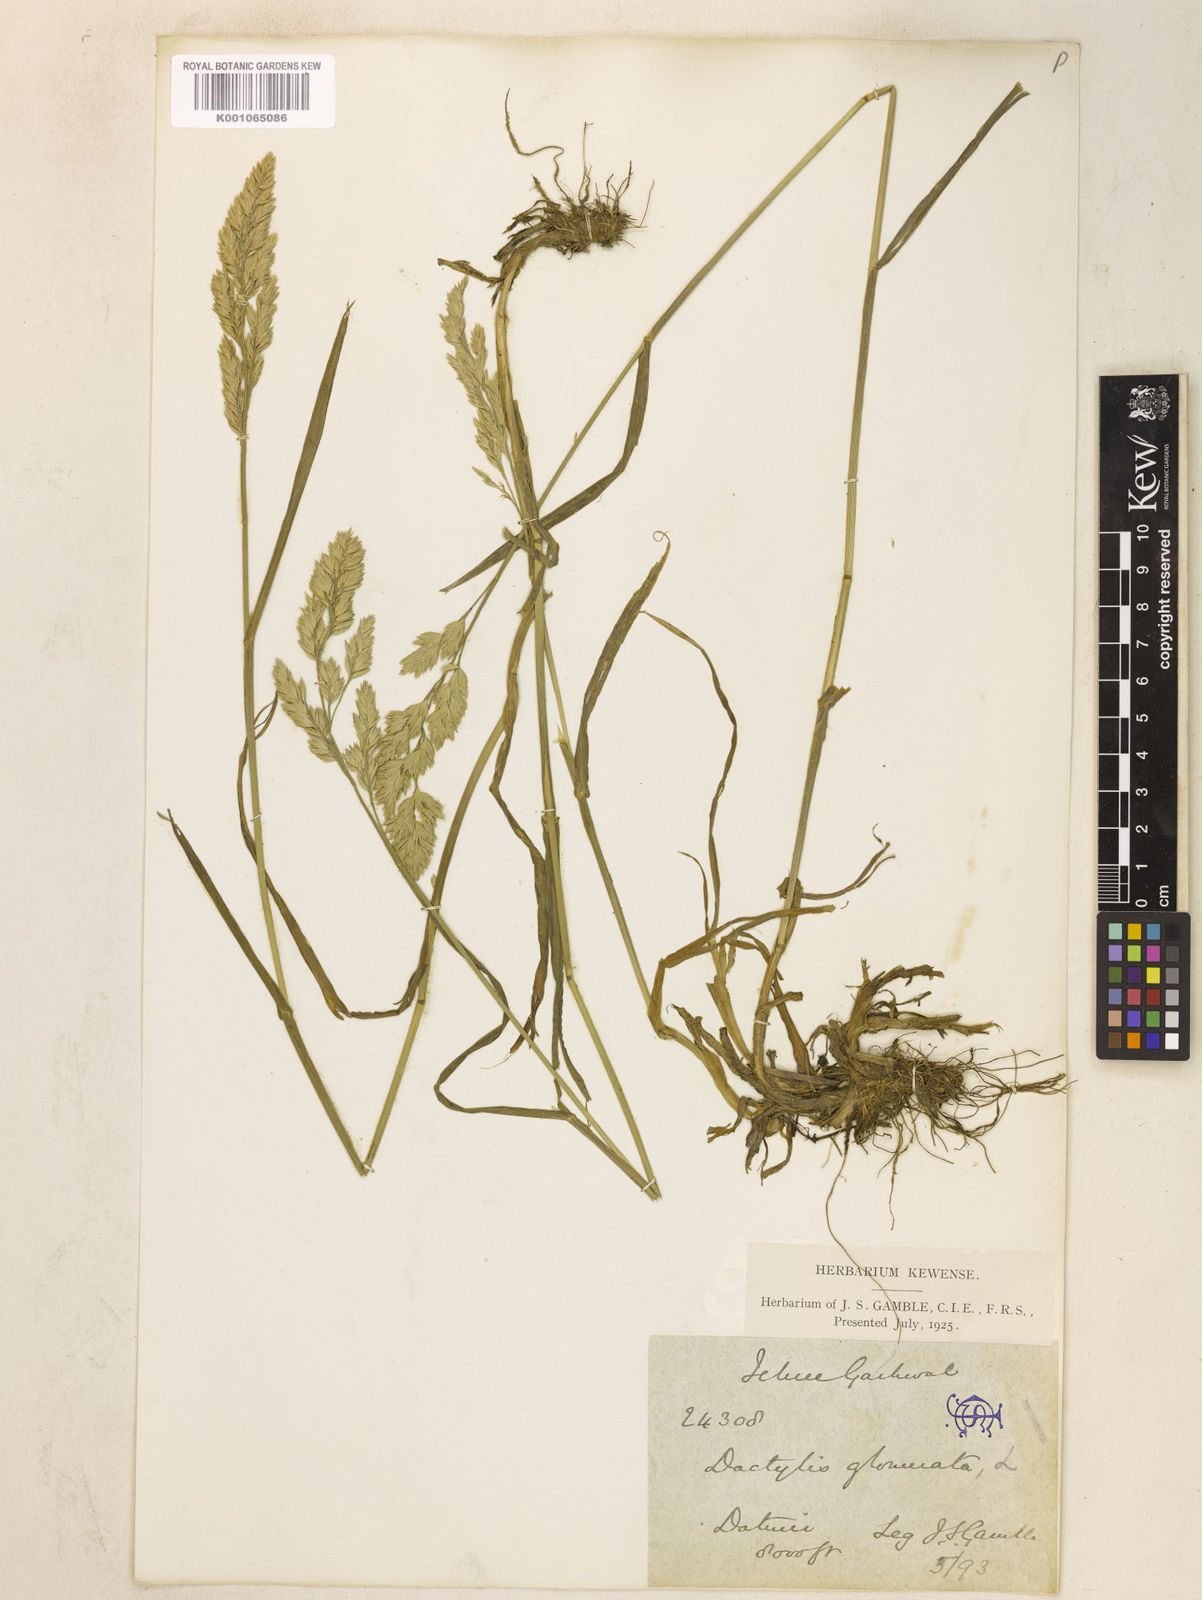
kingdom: Plantae
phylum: Tracheophyta
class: Liliopsida
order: Poales
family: Poaceae
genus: Dactylis
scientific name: Dactylis glomerata
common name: Orchardgrass
